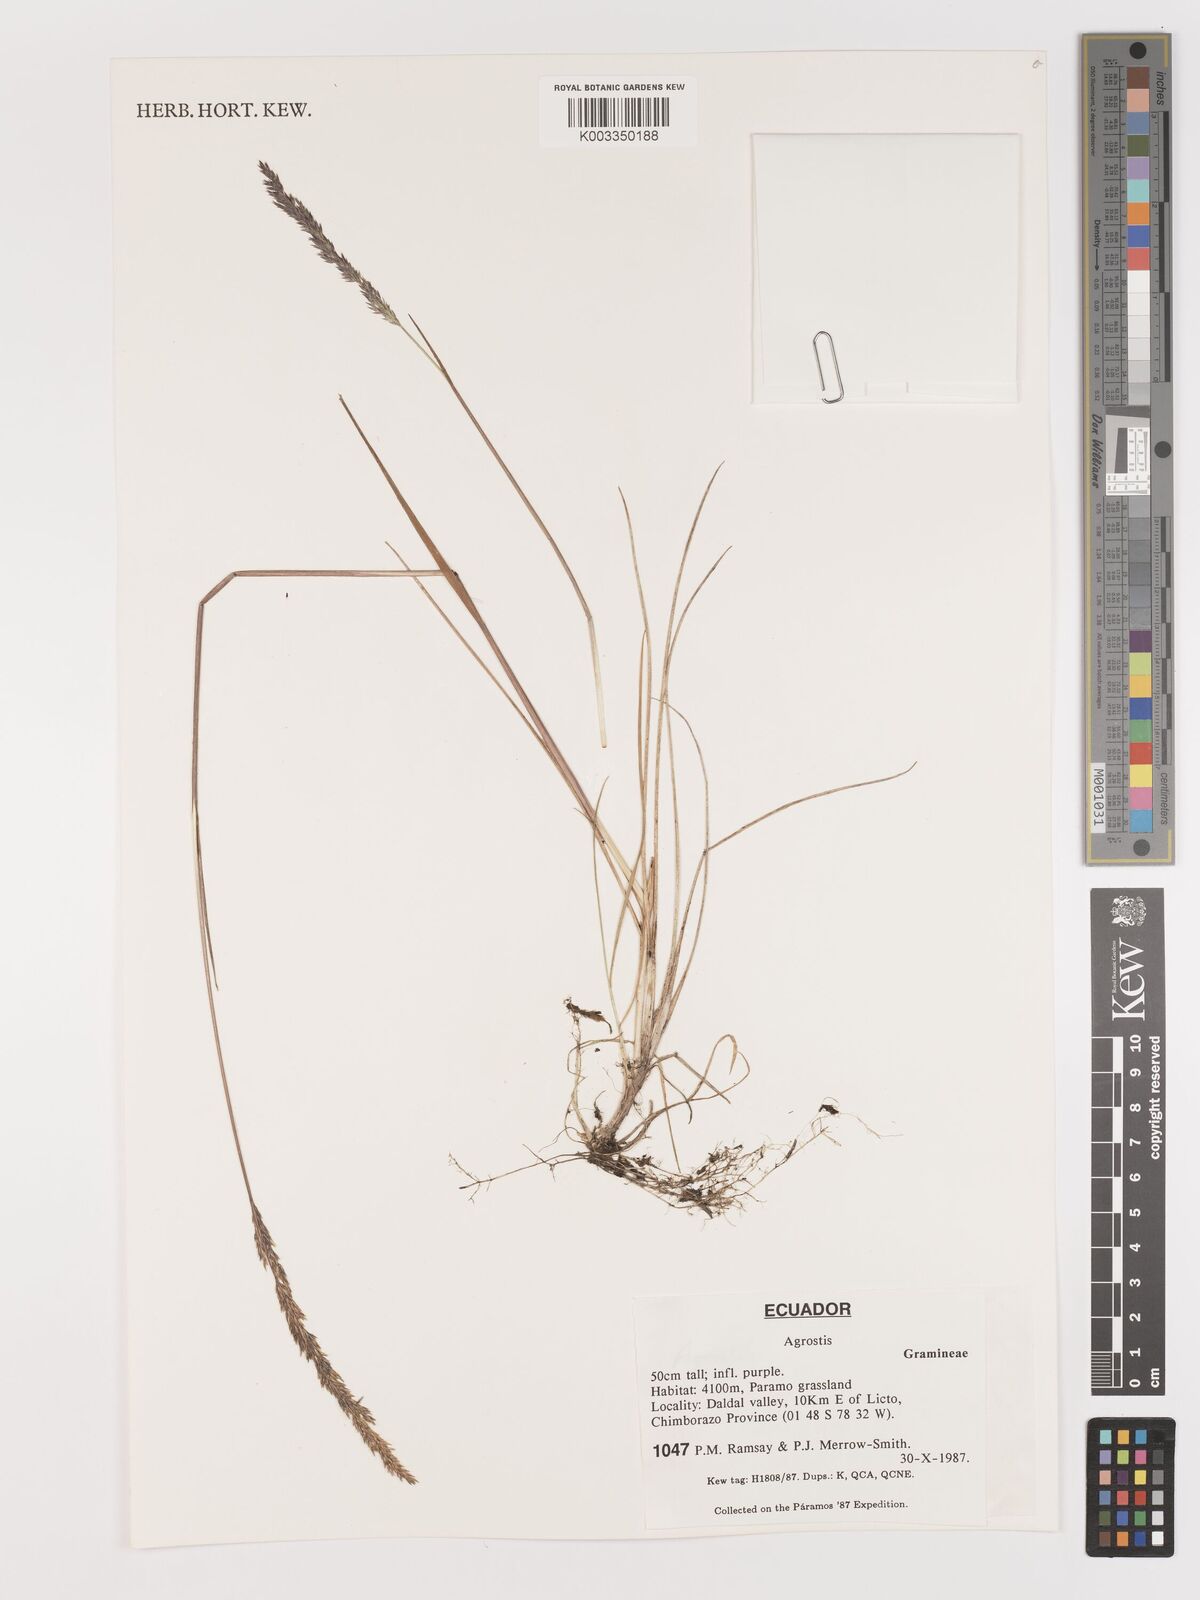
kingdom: Plantae
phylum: Tracheophyta
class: Liliopsida
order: Poales
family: Poaceae
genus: Agrostis
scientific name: Agrostis
